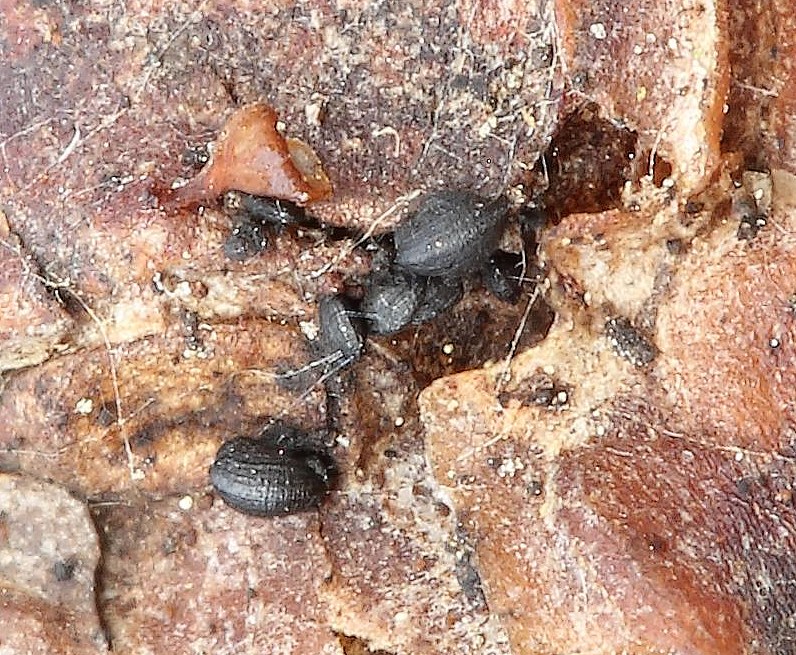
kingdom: Fungi
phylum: Ascomycota
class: Dothideomycetes
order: Mytilinidiales
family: Mytilinidiaceae
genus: Mytilinidion
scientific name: Mytilinidion rhenanum
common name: almindelig kulmusling
